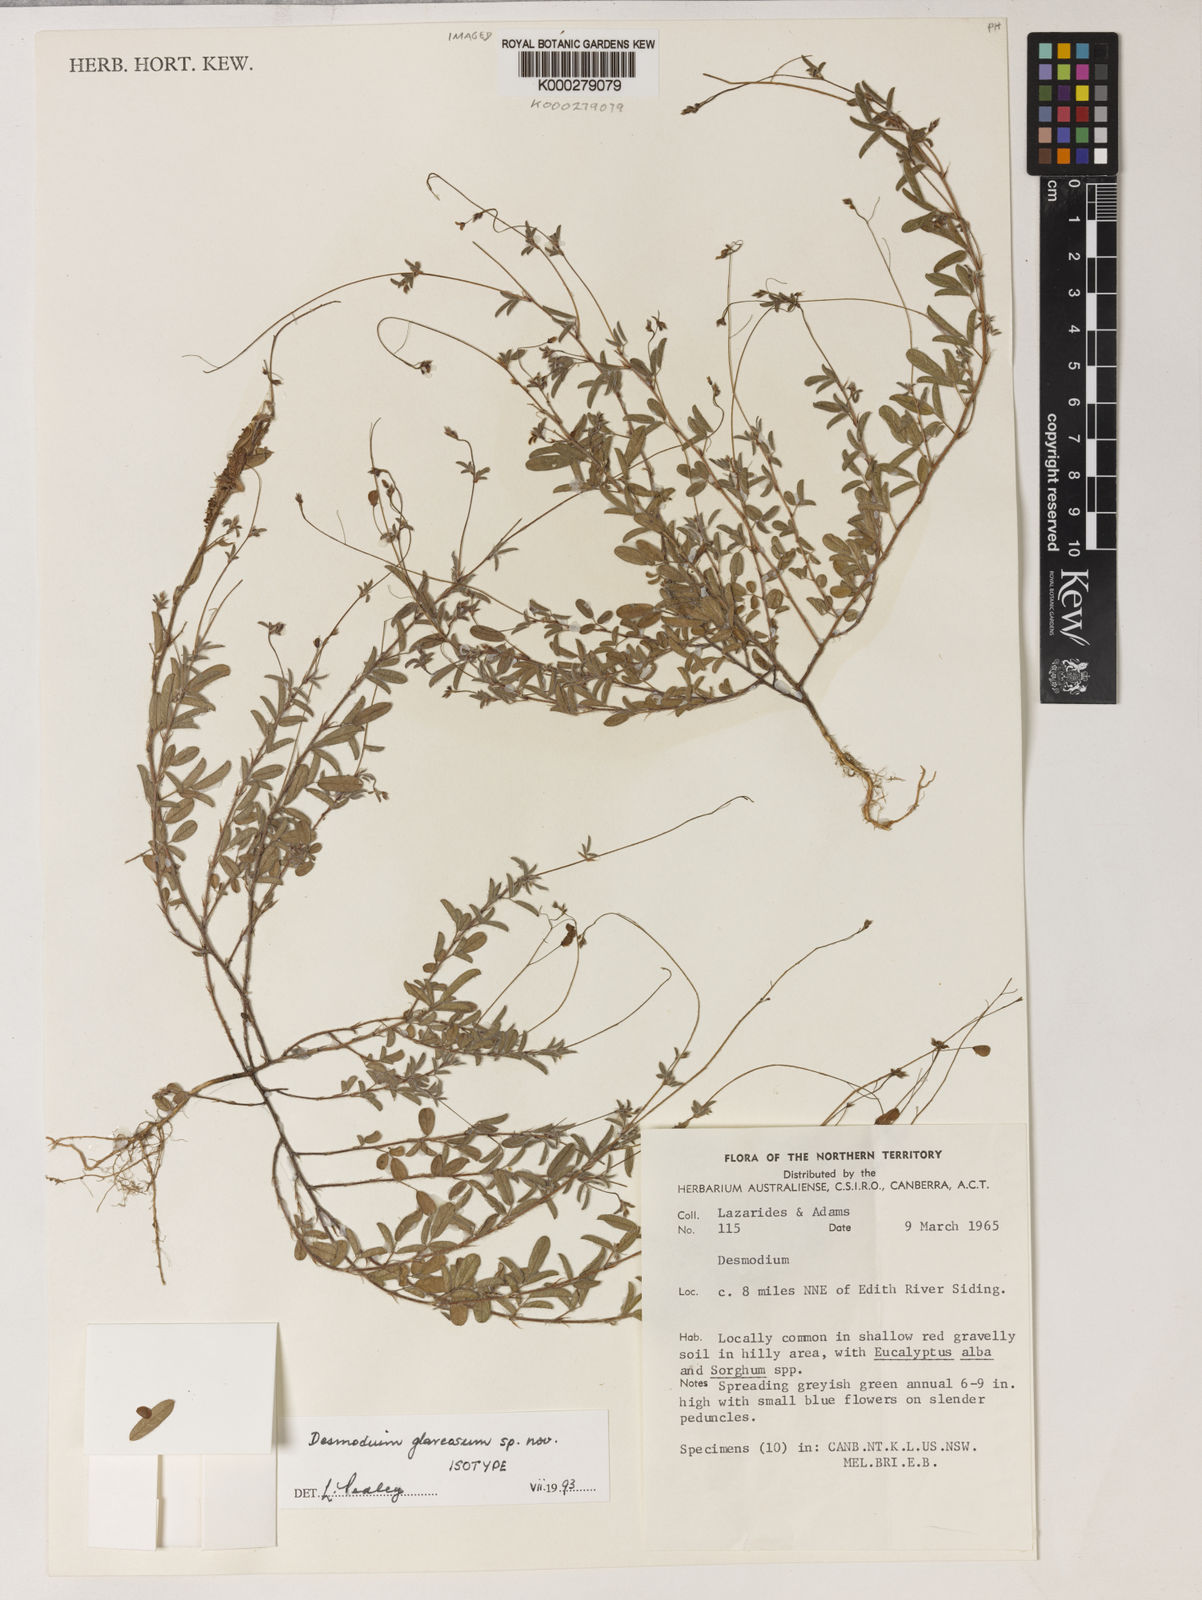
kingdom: Plantae
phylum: Tracheophyta
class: Magnoliopsida
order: Fabales
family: Fabaceae
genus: Grona
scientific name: Grona glareosa
